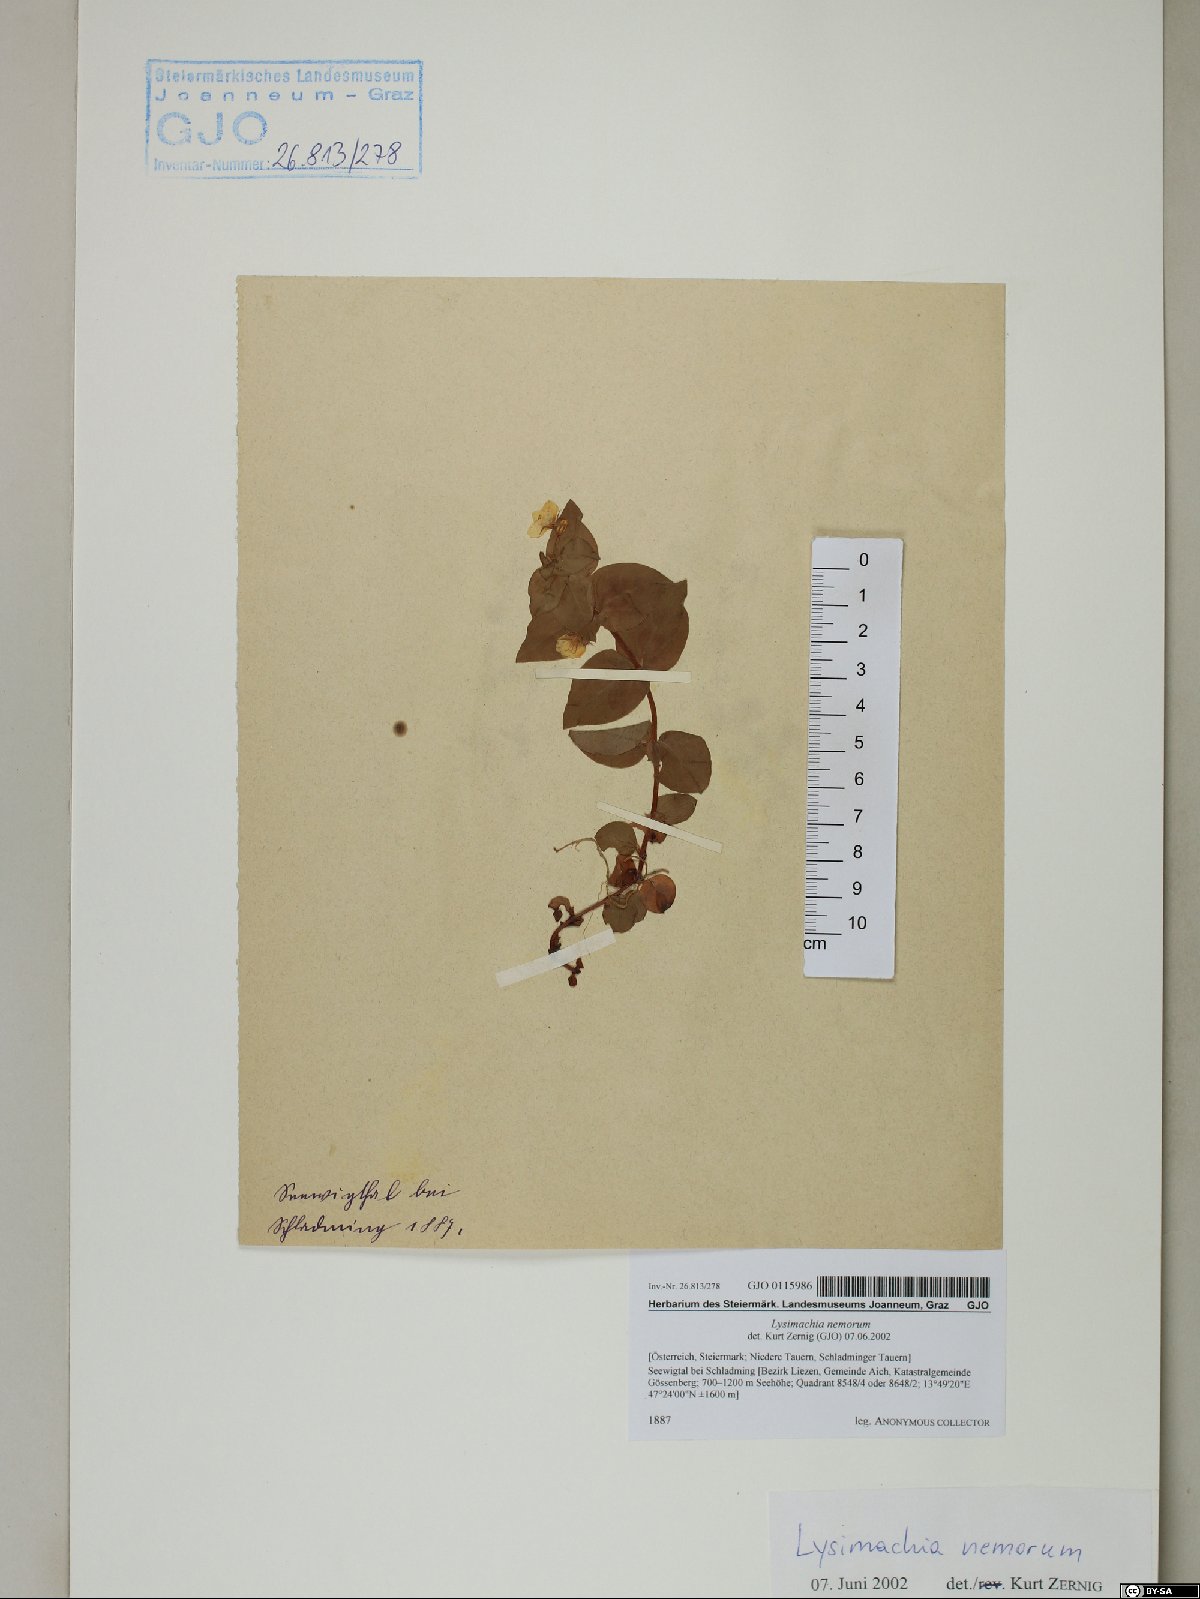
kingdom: Plantae
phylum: Tracheophyta
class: Magnoliopsida
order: Ericales
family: Primulaceae
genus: Lysimachia
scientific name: Lysimachia nemorum
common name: Yellow pimpernel
